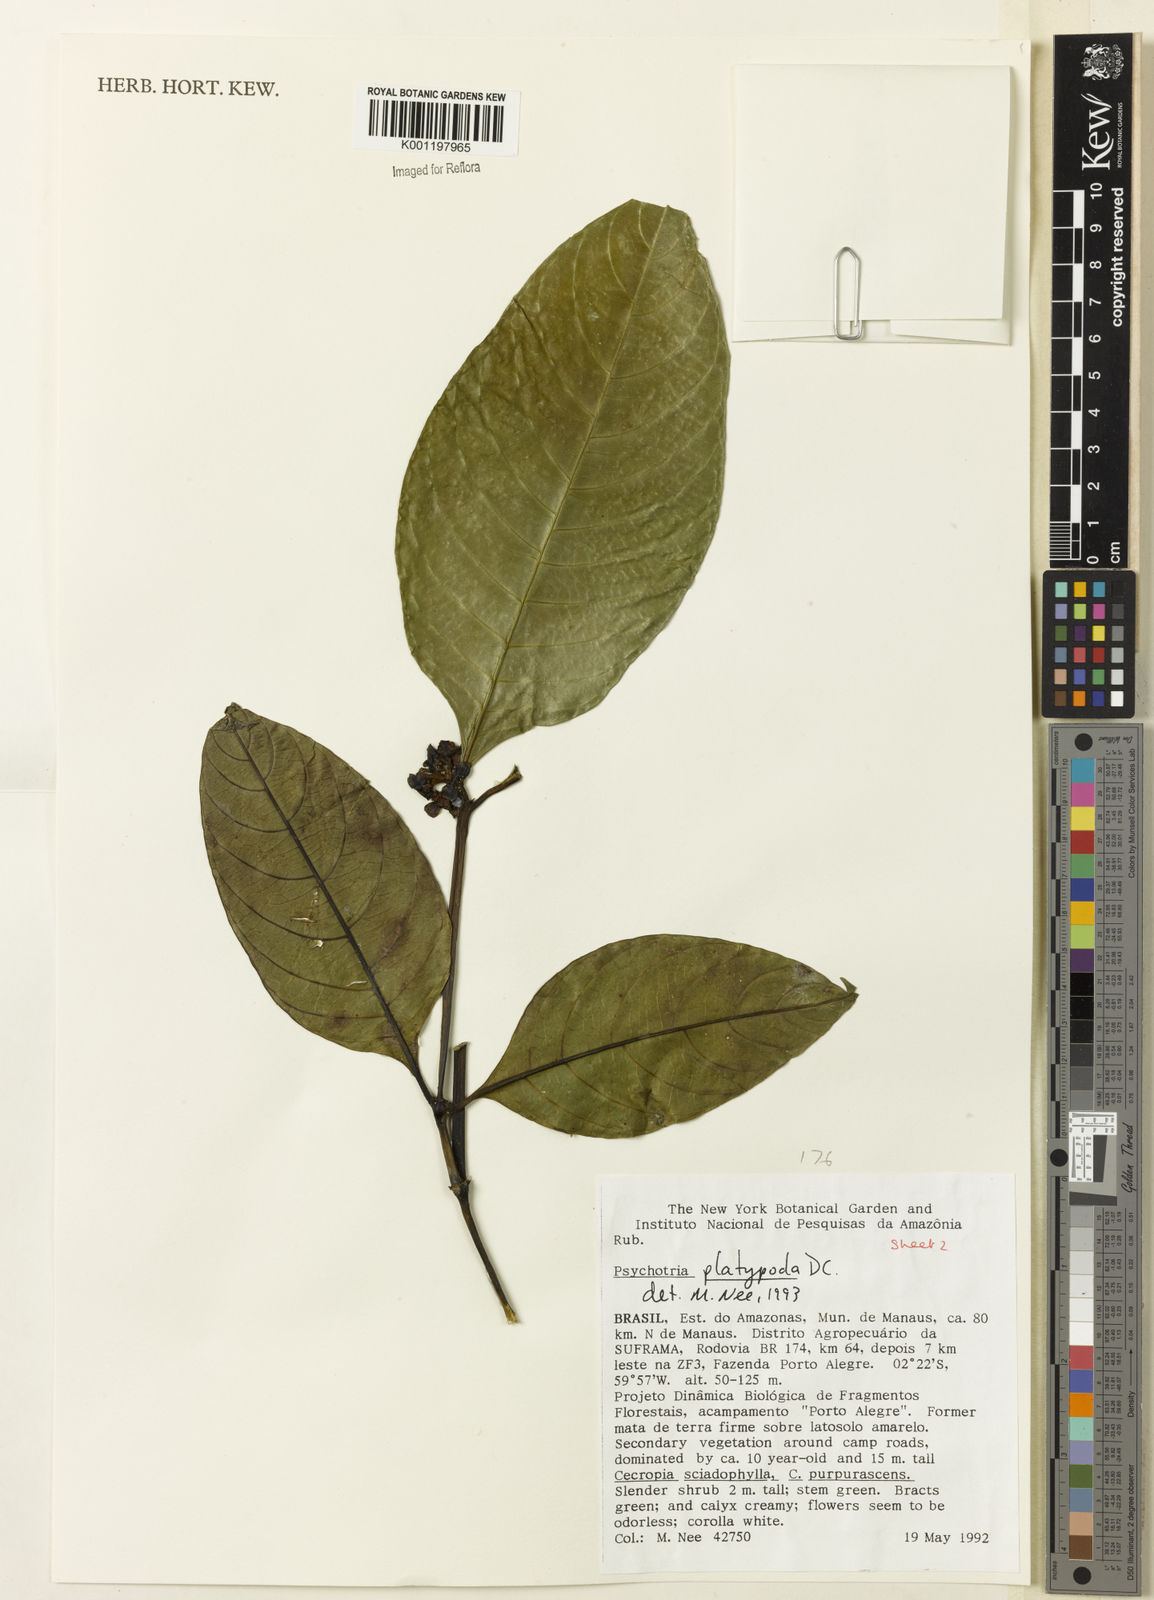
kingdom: Plantae
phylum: Tracheophyta
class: Magnoliopsida
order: Gentianales
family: Rubiaceae
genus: Palicourea
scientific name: Palicourea dichotoma
